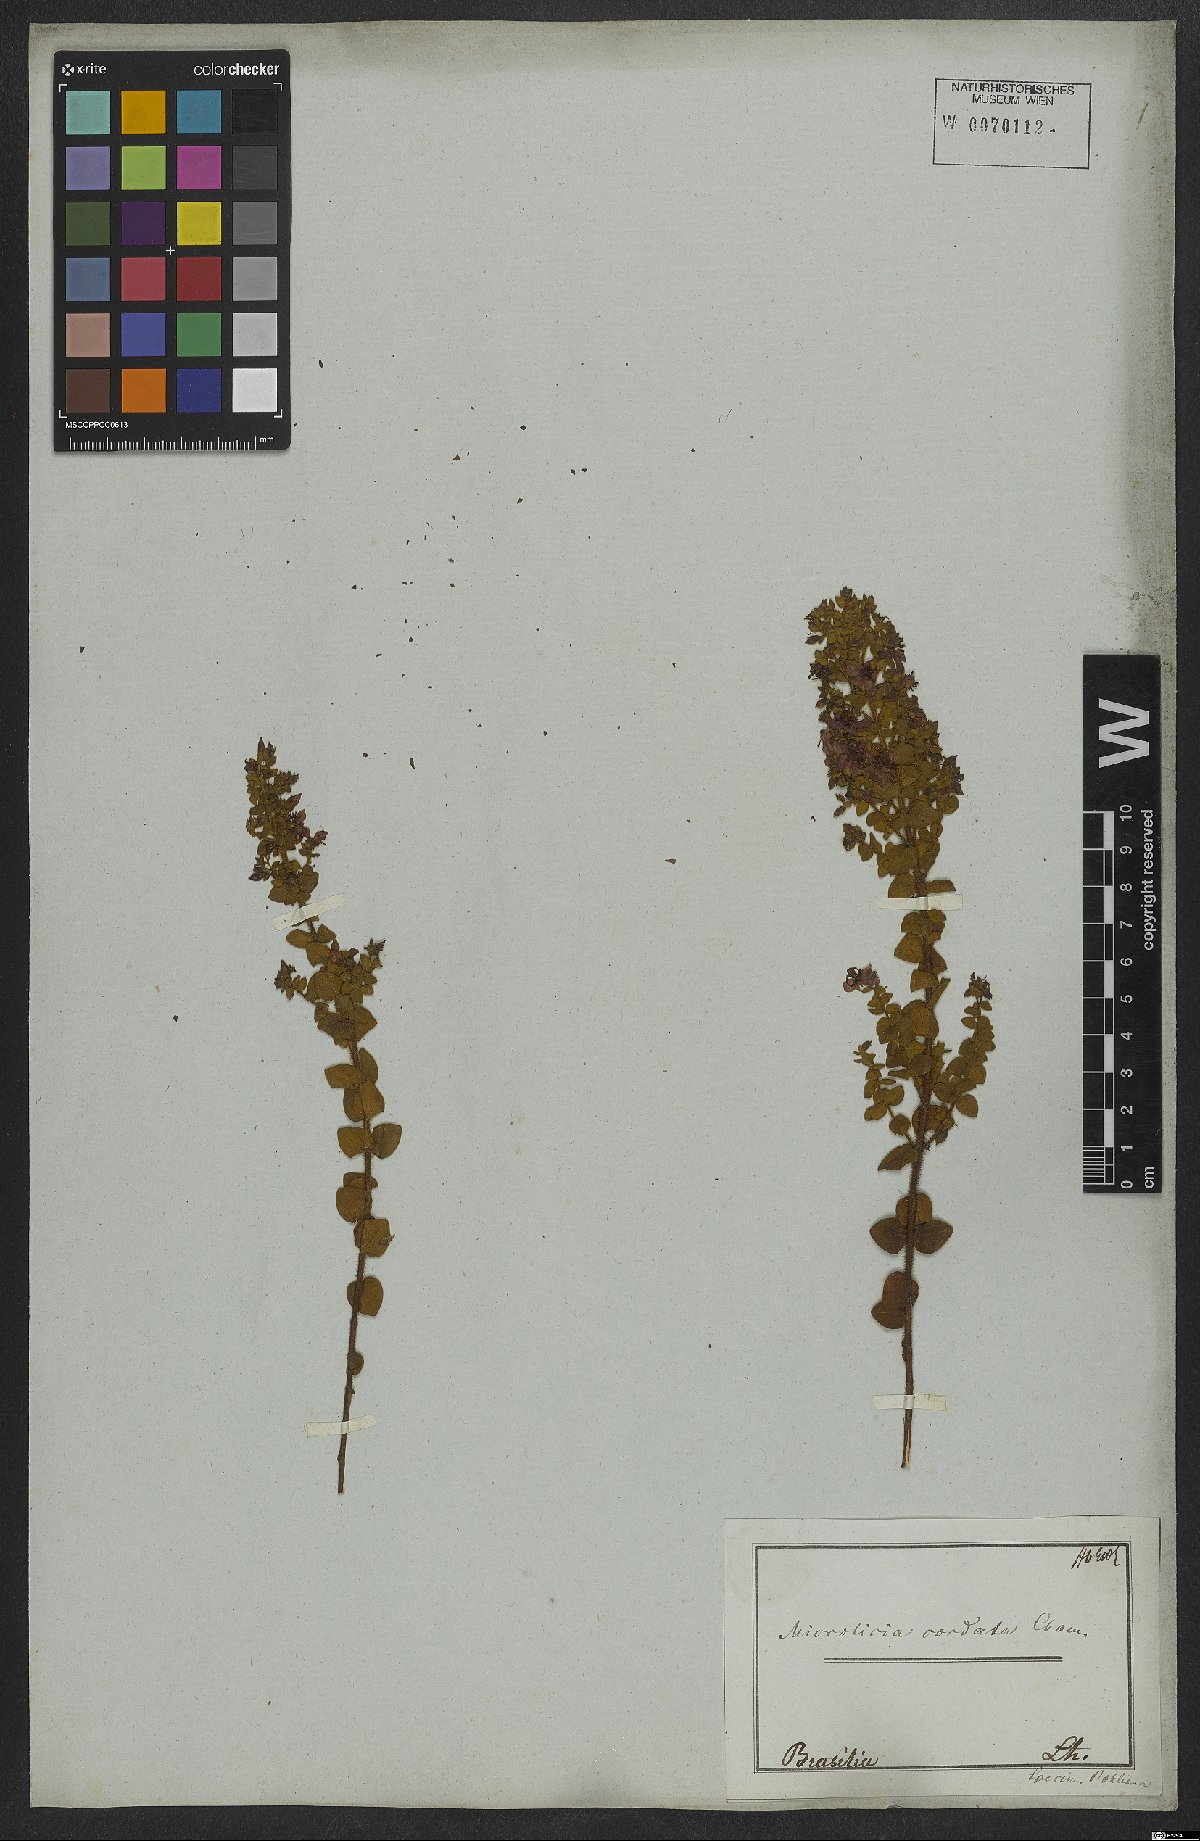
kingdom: Plantae
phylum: Tracheophyta
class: Magnoliopsida
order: Myrtales
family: Melastomataceae
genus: Microlicia
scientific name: Microlicia cordata
